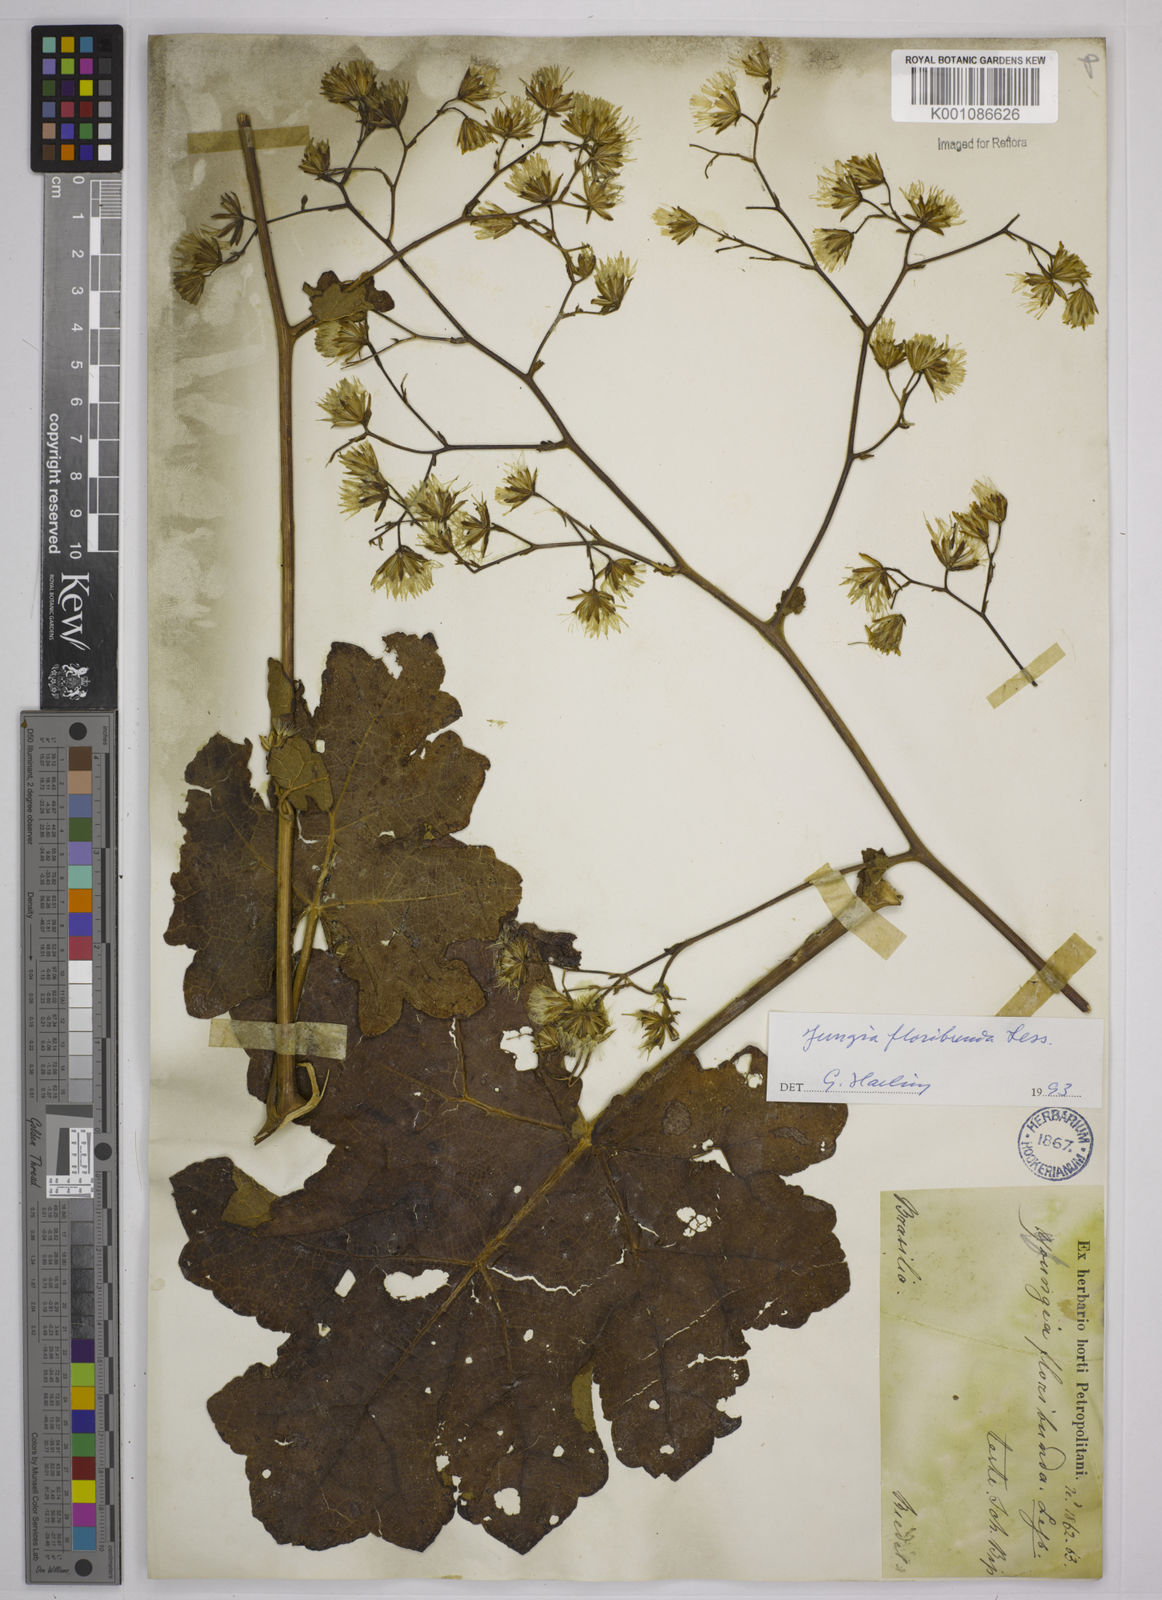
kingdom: Plantae
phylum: Tracheophyta
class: Magnoliopsida
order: Asterales
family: Asteraceae
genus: Jungia
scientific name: Jungia floribunda
